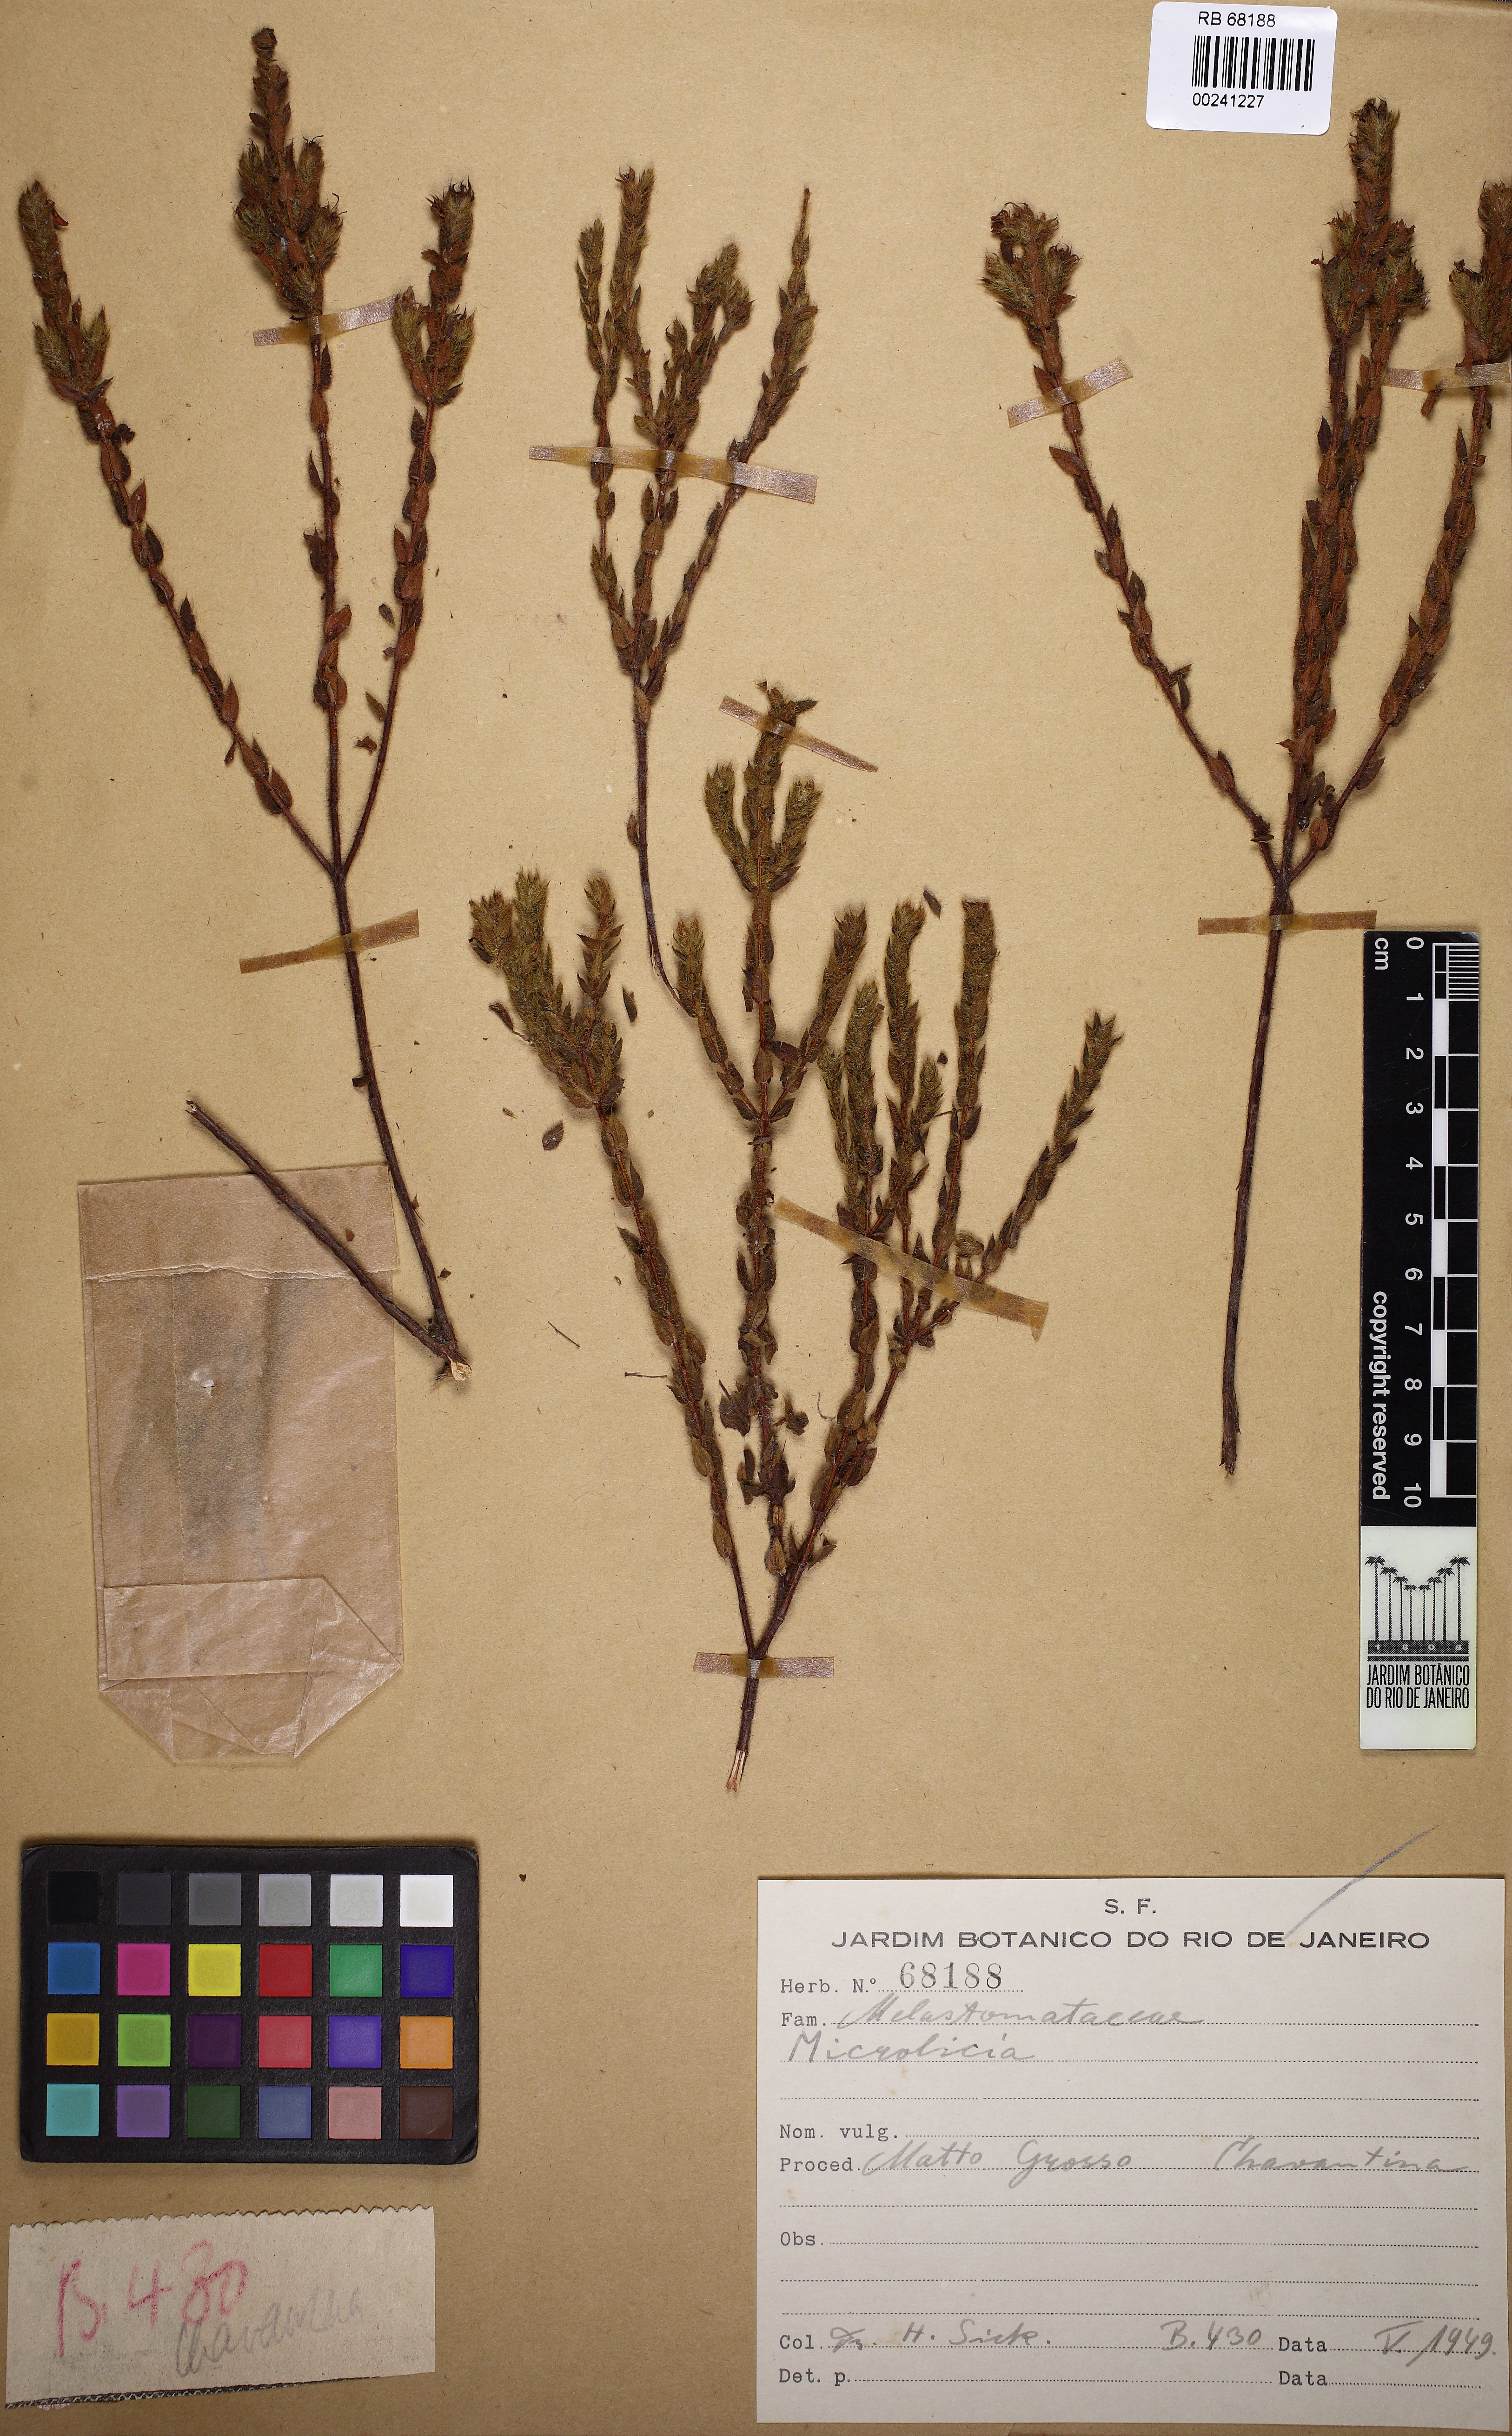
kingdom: Plantae
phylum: Tracheophyta
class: Magnoliopsida
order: Myrtales
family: Melastomataceae
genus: Microlicia
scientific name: Microlicia insignis
